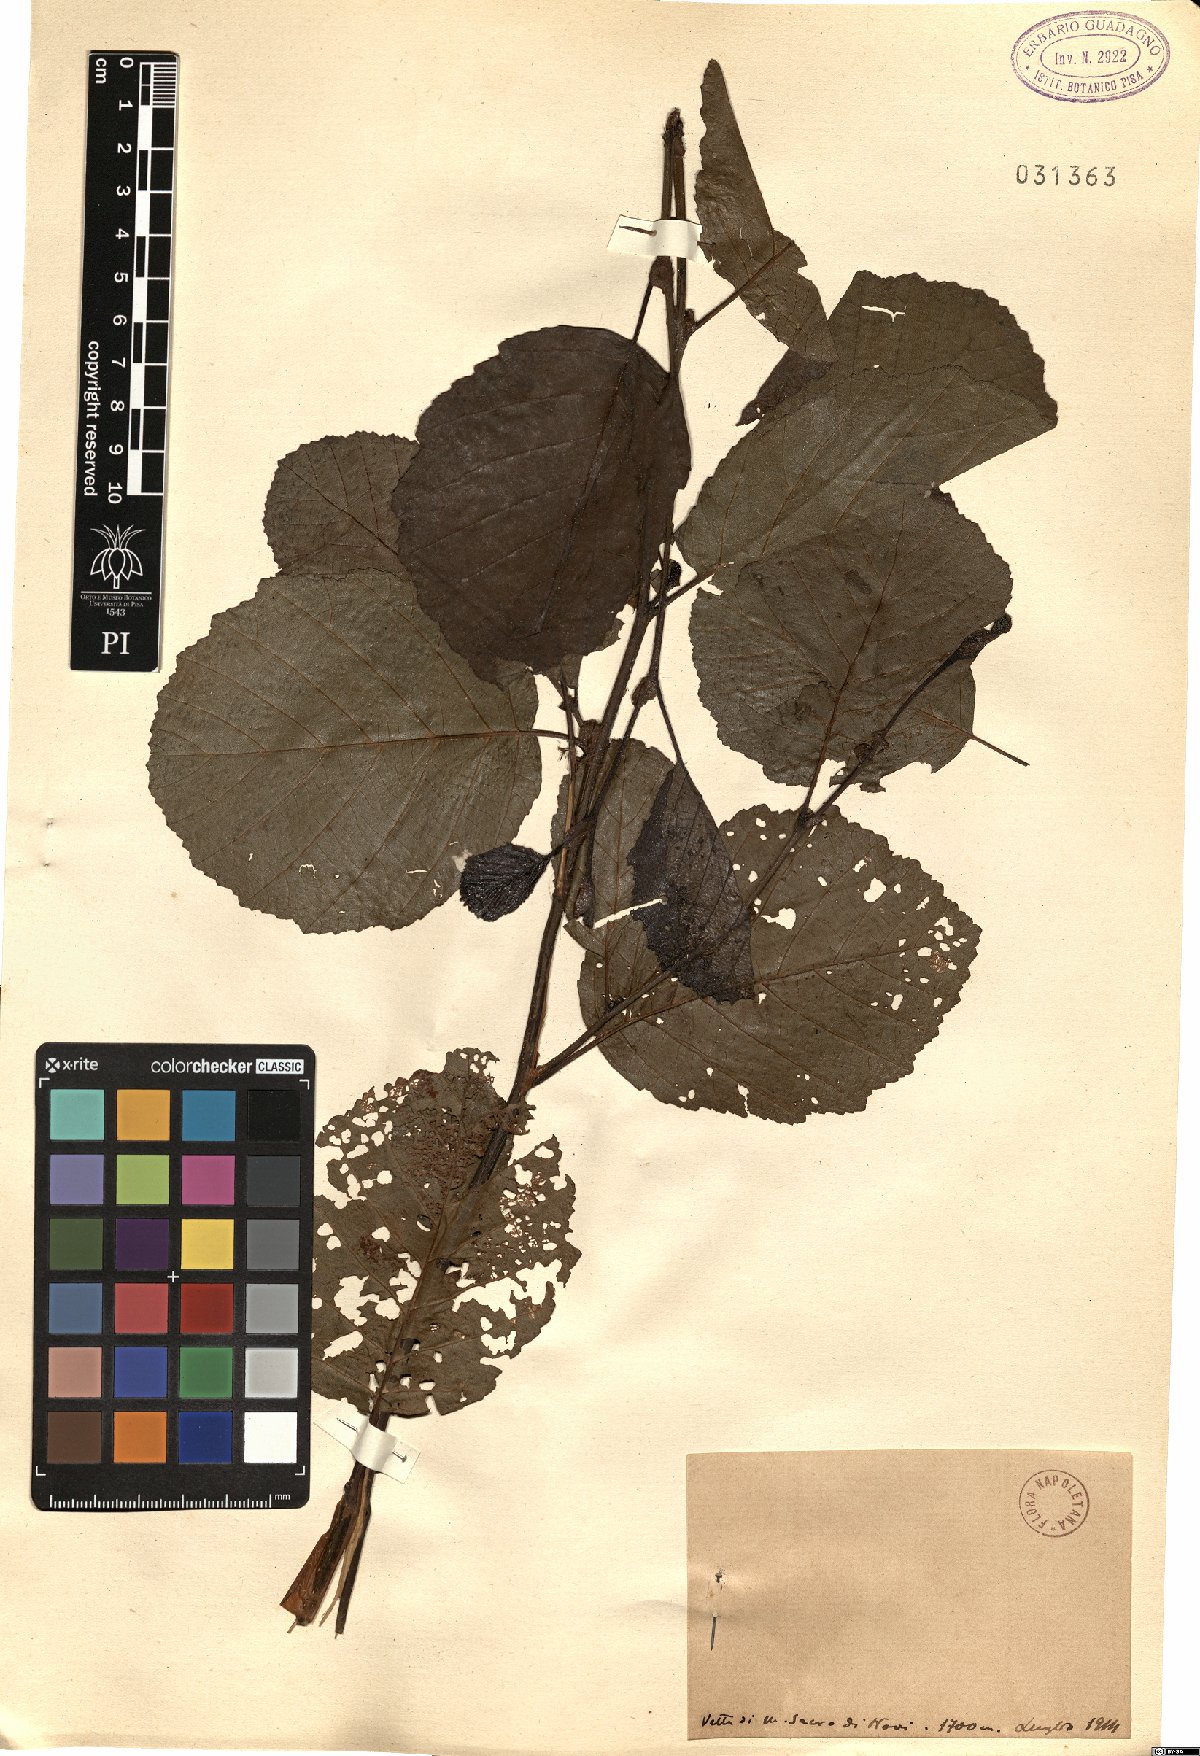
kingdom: Plantae
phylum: Tracheophyta
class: Magnoliopsida
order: Fagales
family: Betulaceae
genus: Alnus
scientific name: Alnus
